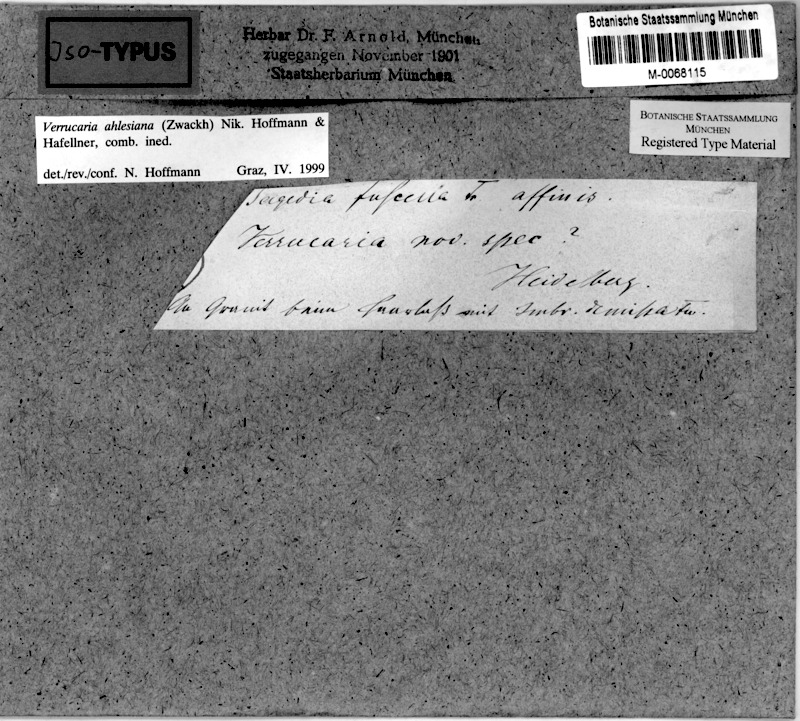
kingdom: Fungi
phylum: Ascomycota
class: Eurotiomycetes
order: Verrucariales
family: Verrucariaceae
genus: Verrucaria
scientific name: Verrucaria ahlesiana
